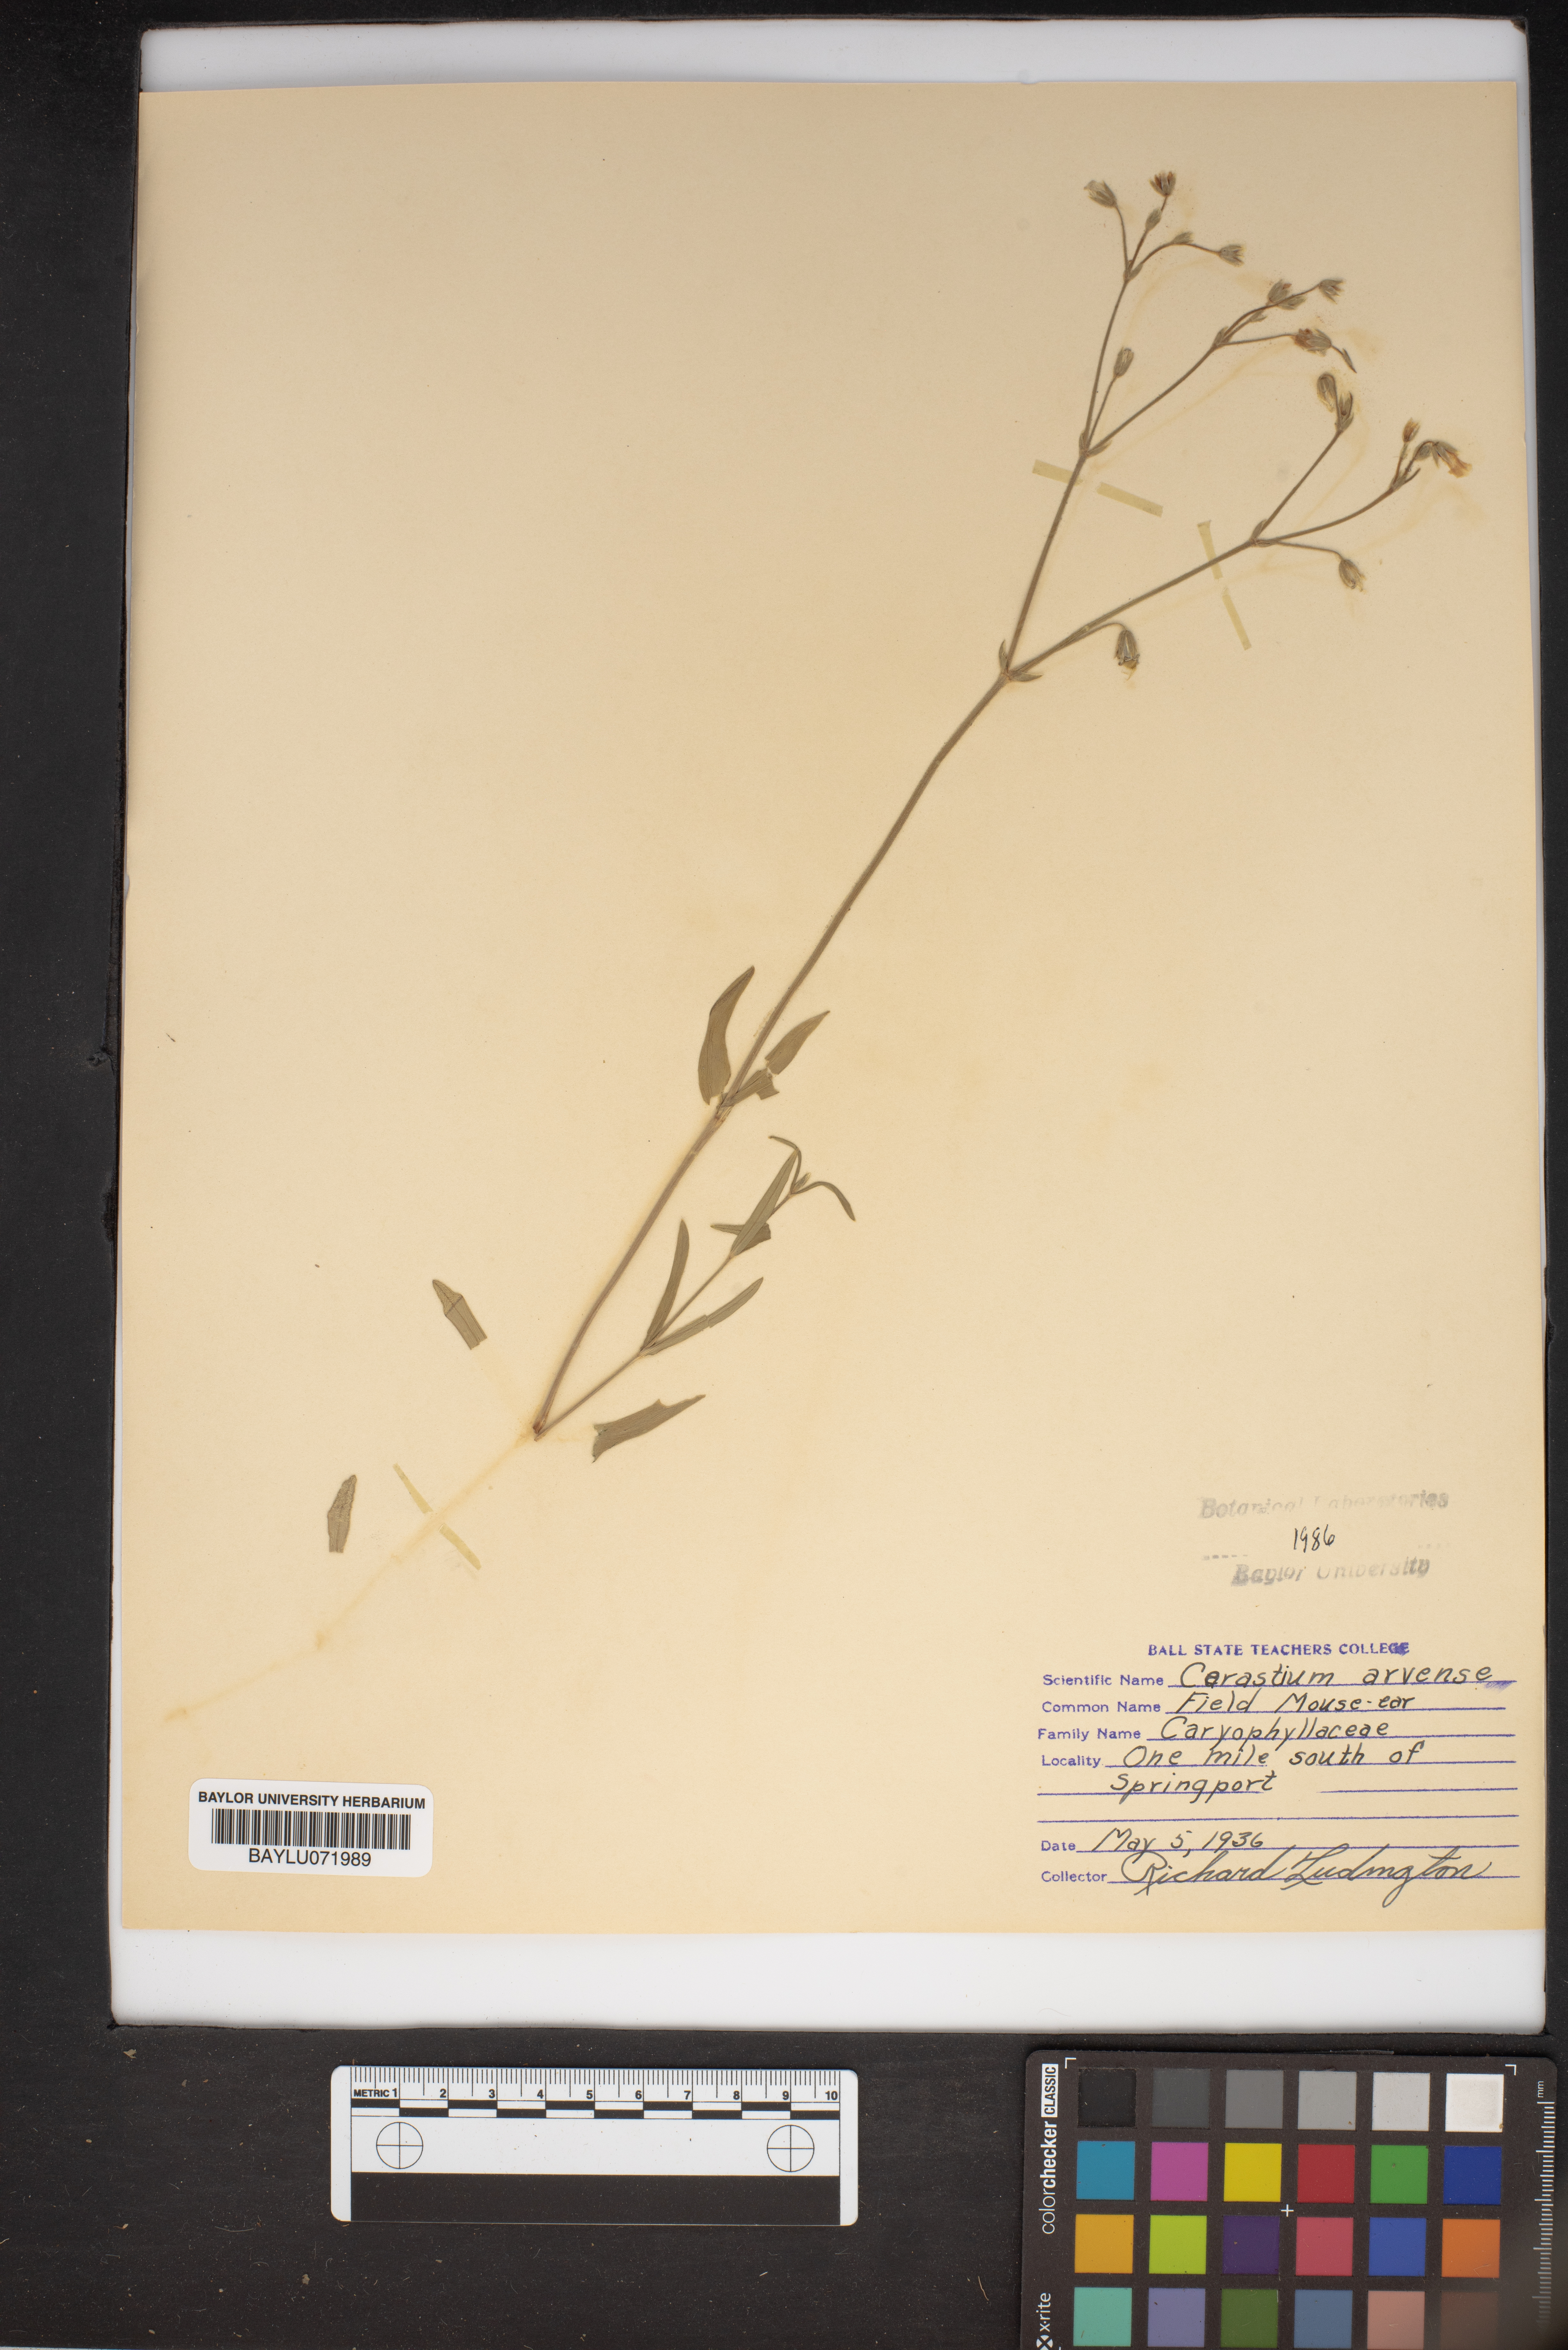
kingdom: Plantae
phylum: Tracheophyta
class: Magnoliopsida
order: Caryophyllales
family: Caryophyllaceae
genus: Cerastium
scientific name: Cerastium arvense
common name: Field mouse-ear
